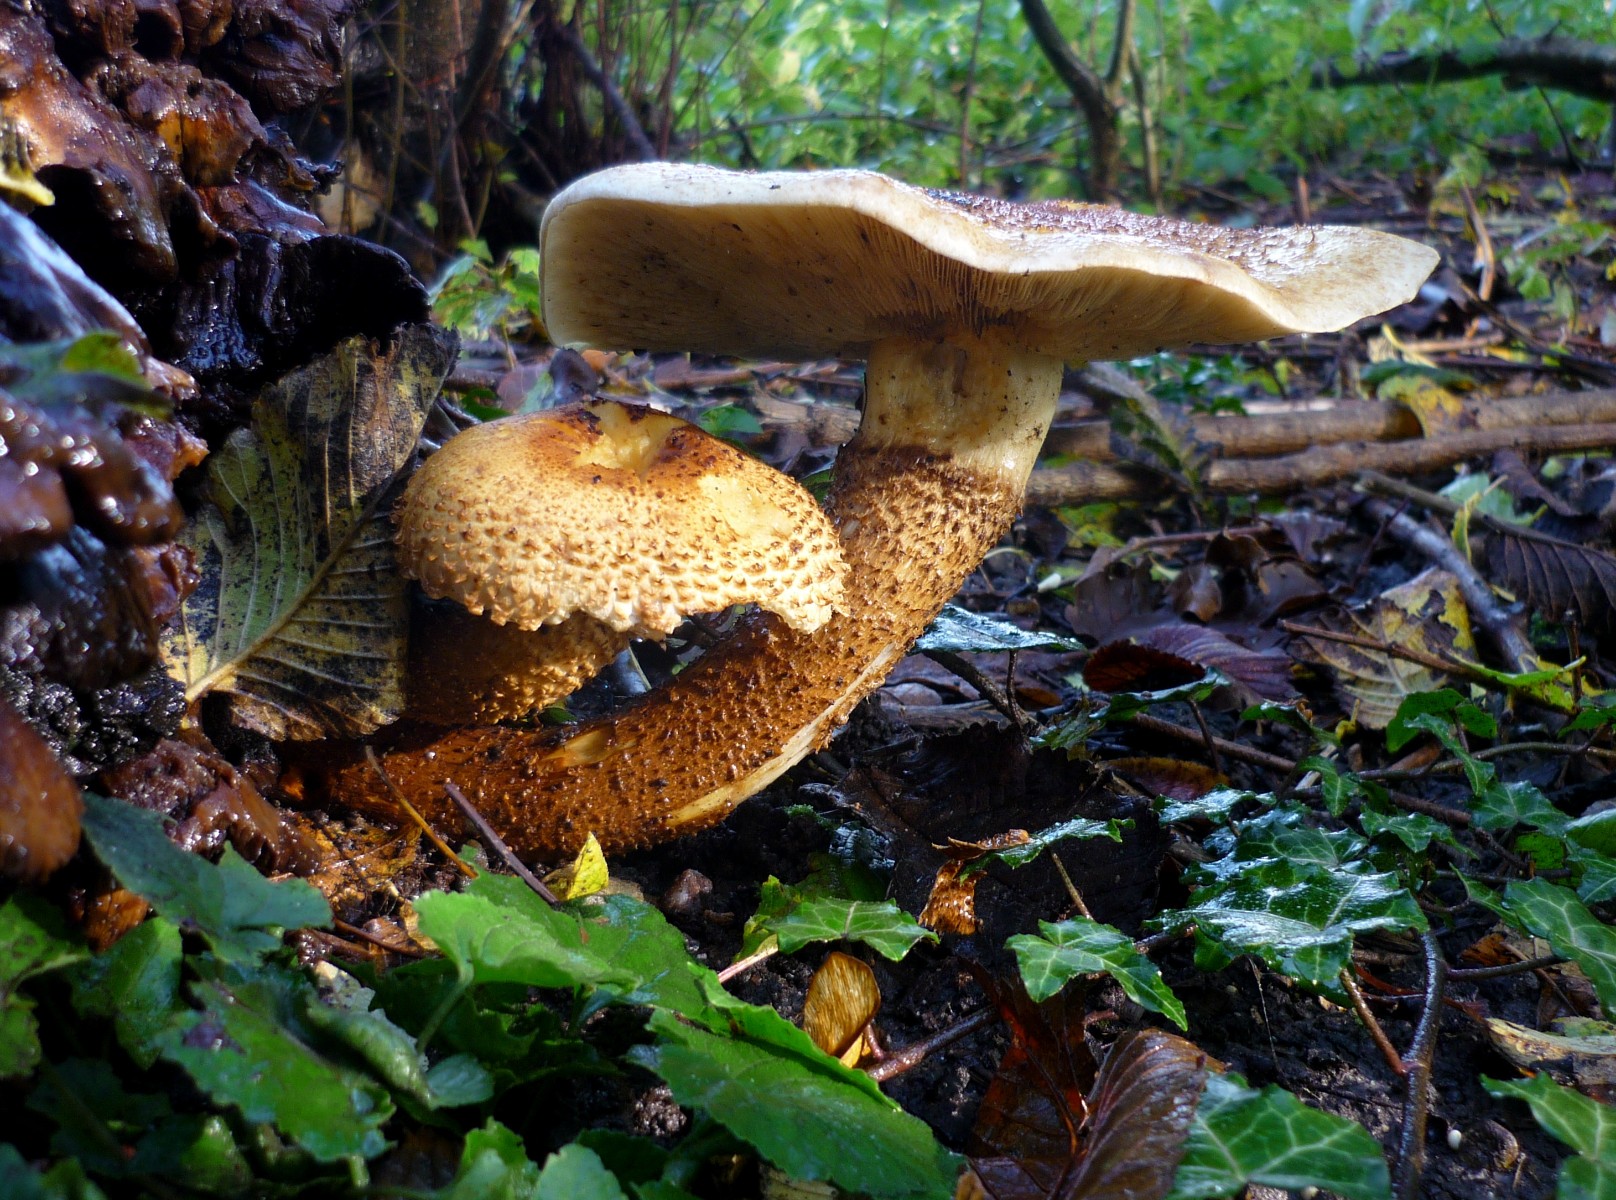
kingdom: Fungi
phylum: Basidiomycota
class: Agaricomycetes
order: Agaricales
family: Strophariaceae
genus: Pholiota
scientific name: Pholiota squarrosa
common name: krumskællet skælhat
